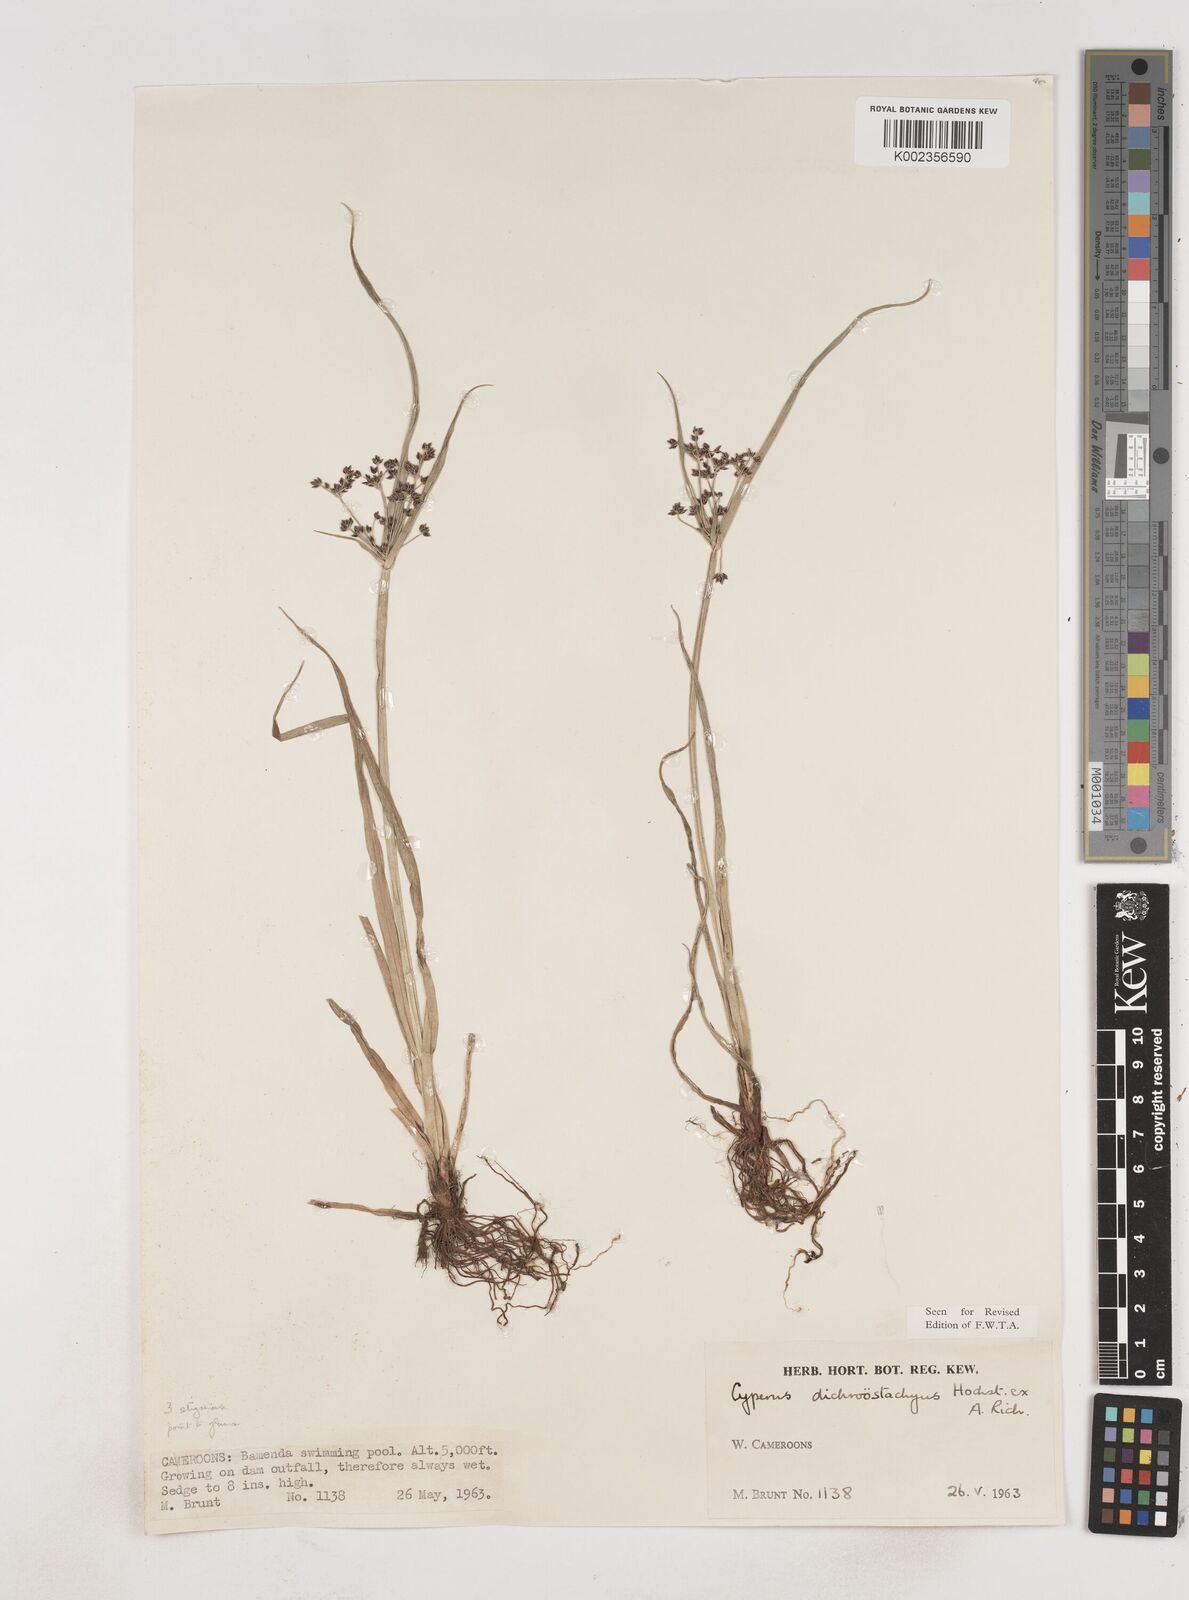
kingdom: Plantae
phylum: Tracheophyta
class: Liliopsida
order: Poales
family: Cyperaceae
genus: Cyperus
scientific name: Cyperus dichrostachyus
